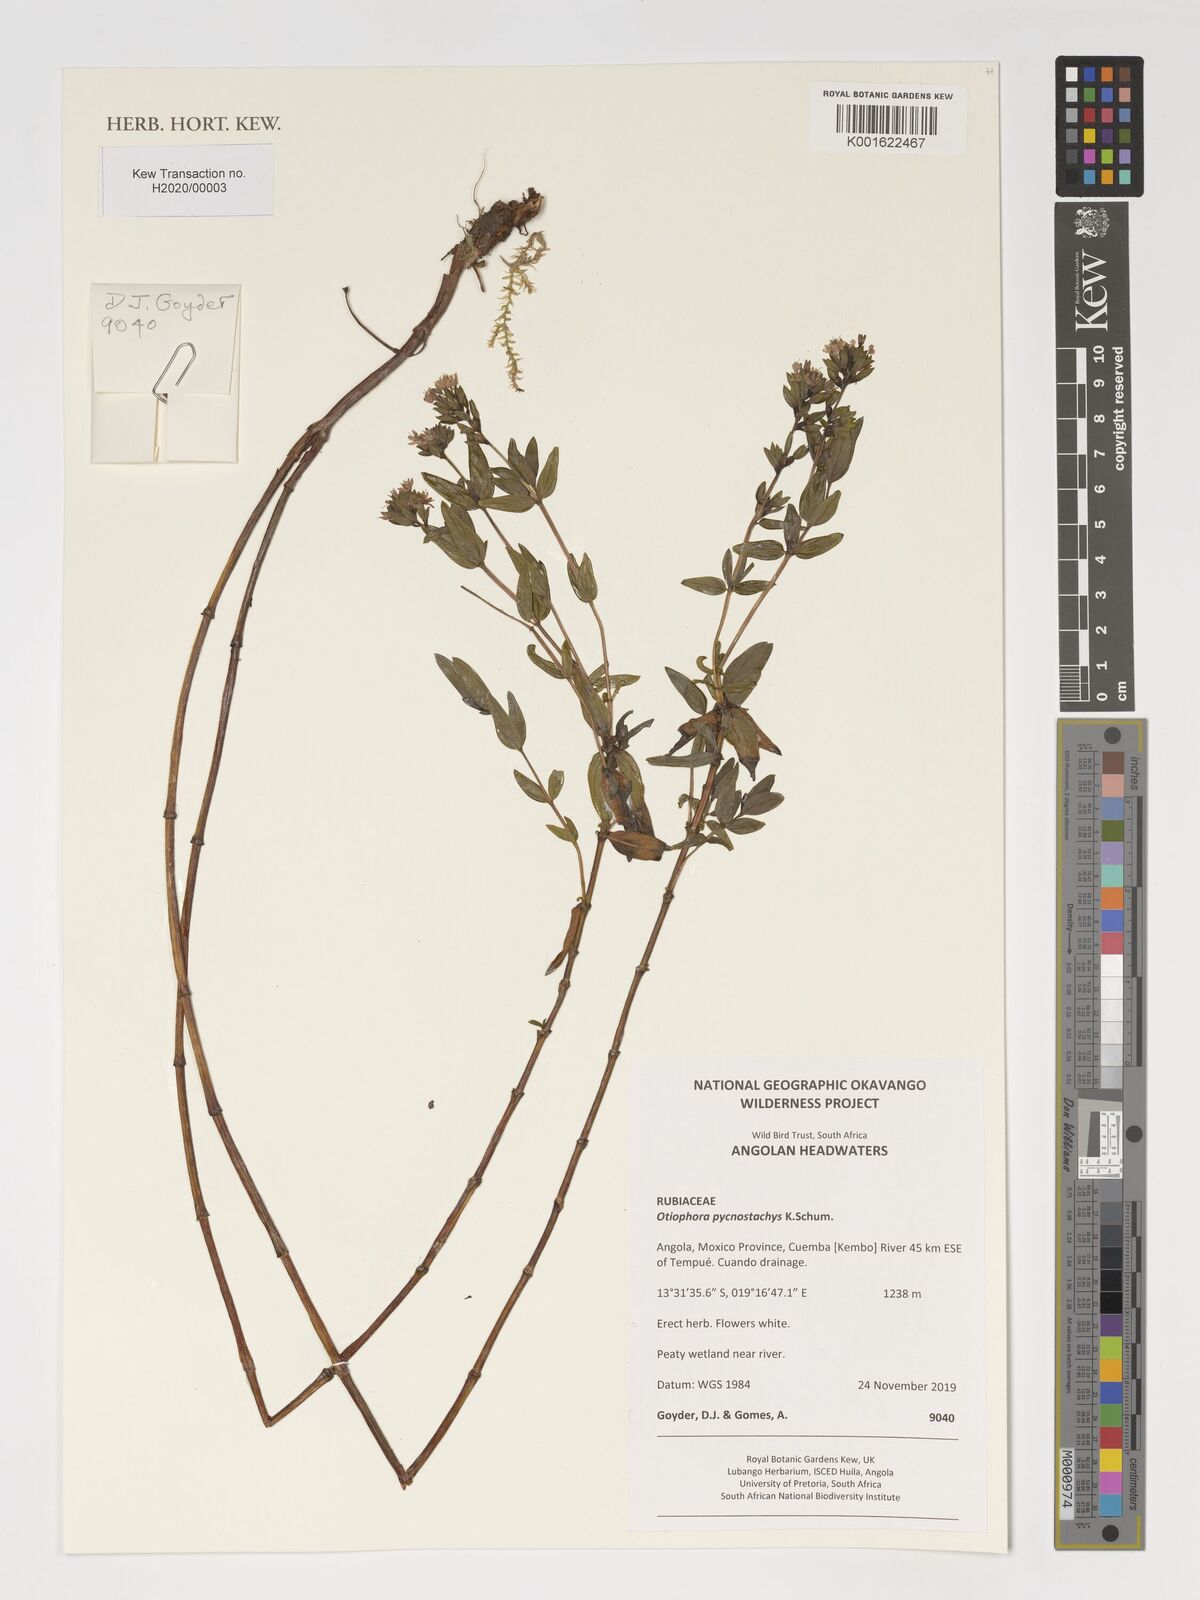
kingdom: Plantae
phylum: Tracheophyta
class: Magnoliopsida
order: Gentianales
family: Rubiaceae
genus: Otiophora
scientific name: Otiophora pycnostachys
